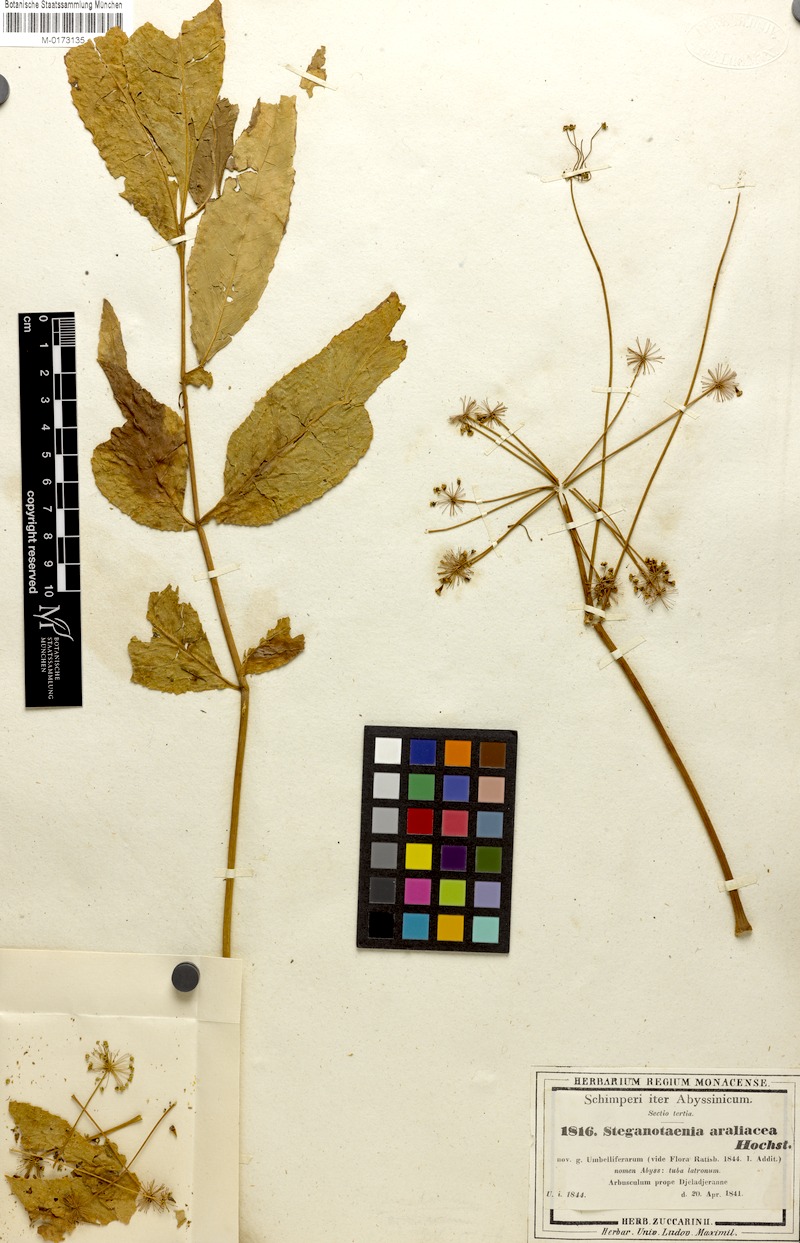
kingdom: Plantae
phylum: Tracheophyta
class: Magnoliopsida
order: Apiales
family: Apiaceae
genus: Steganotaenia
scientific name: Steganotaenia araliacea
